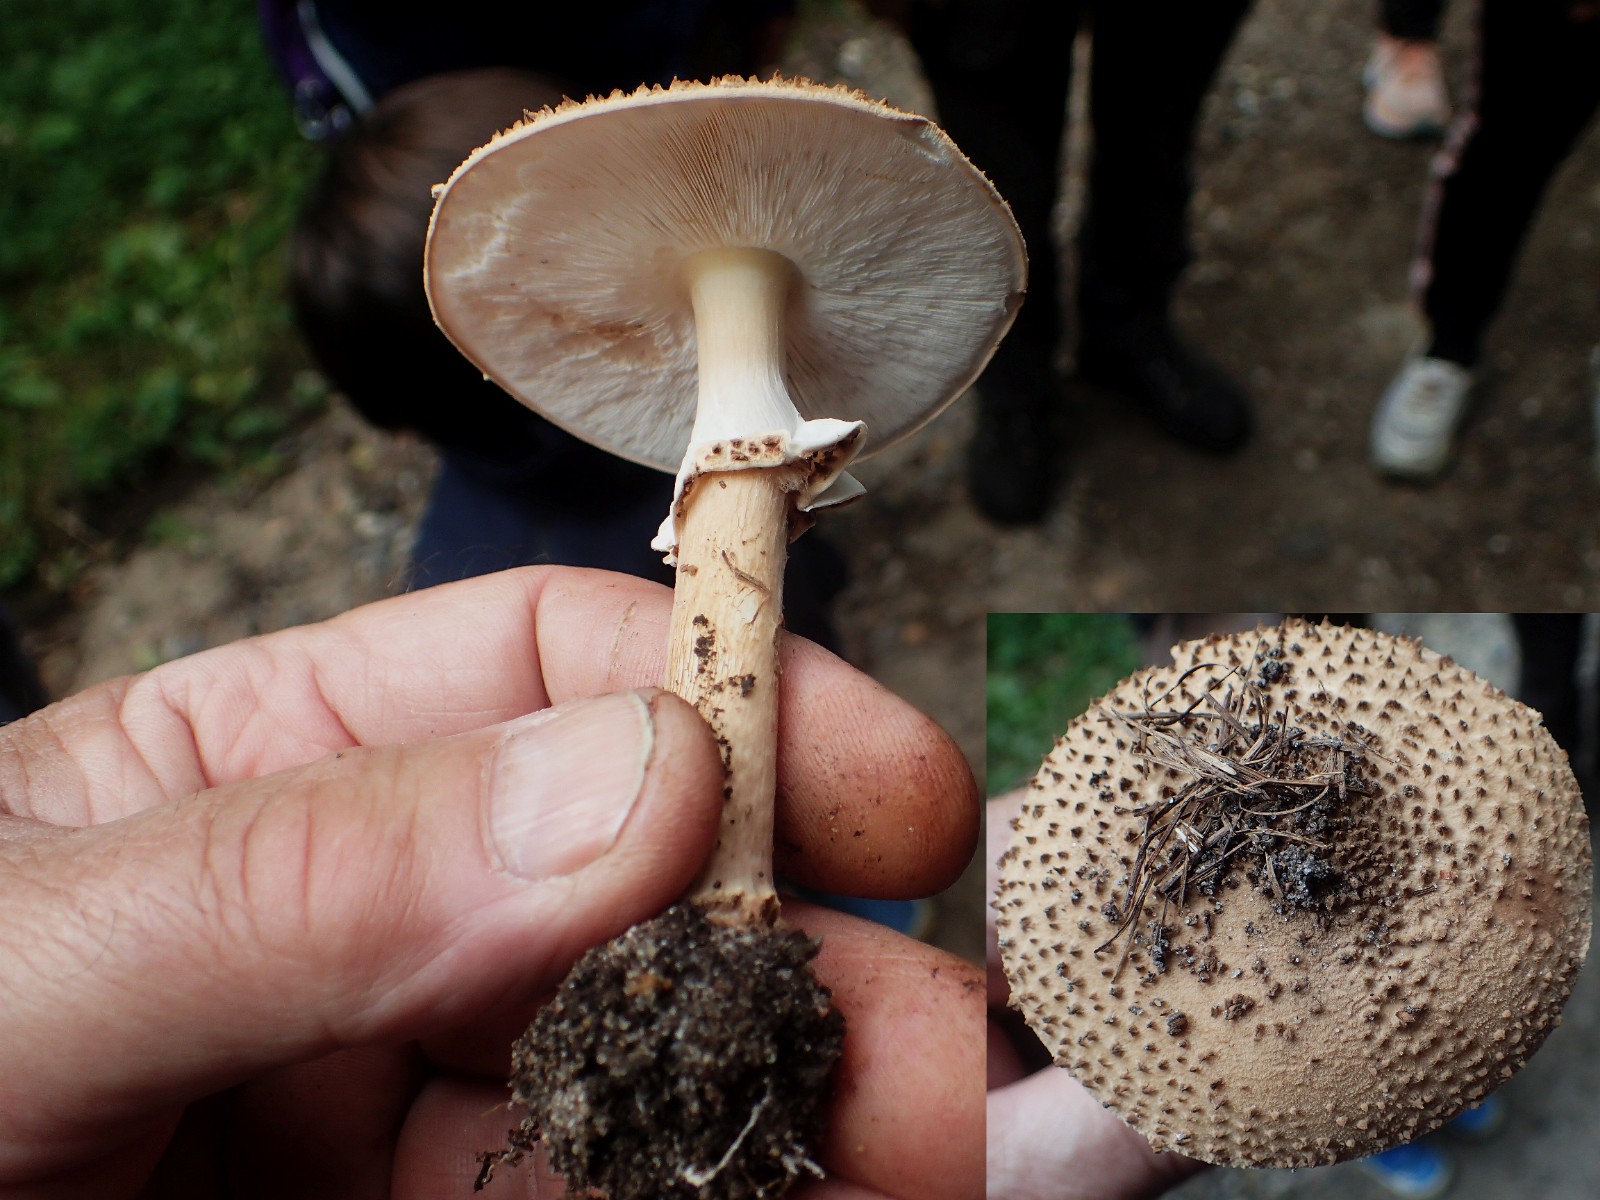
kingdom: Fungi
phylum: Basidiomycota
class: Agaricomycetes
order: Agaricales
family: Agaricaceae
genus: Echinoderma
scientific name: Echinoderma asperum
